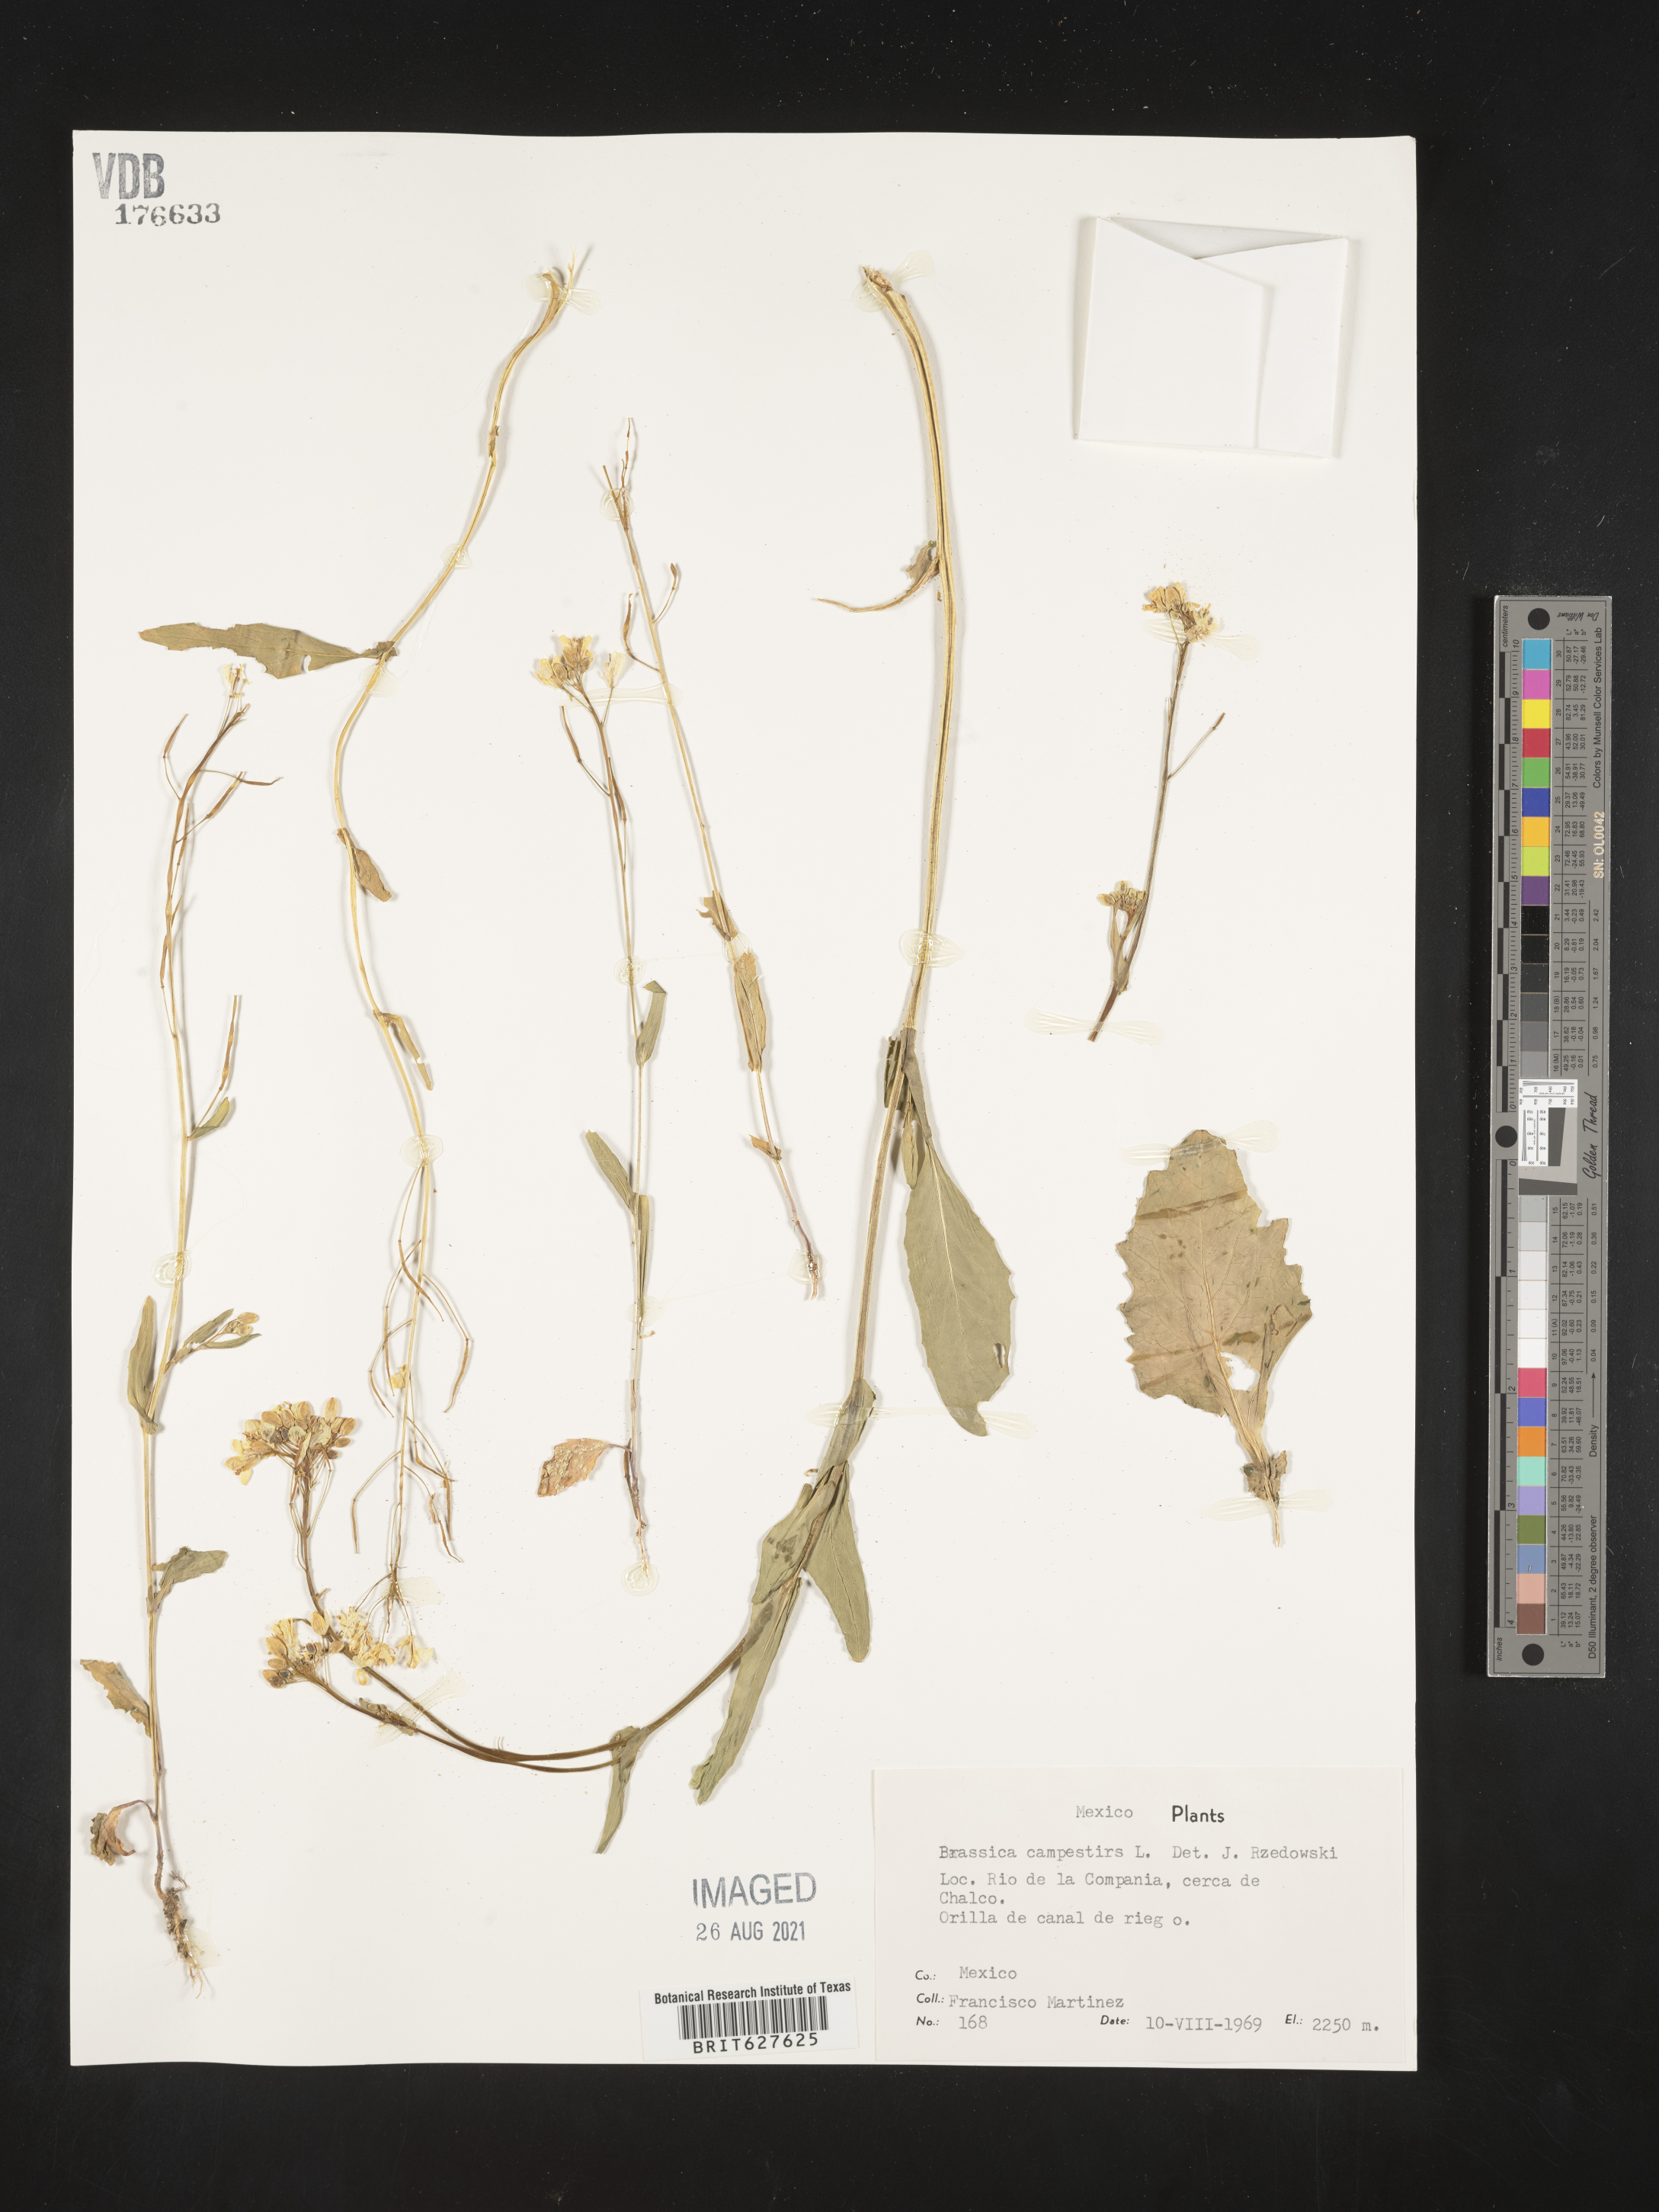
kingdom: Plantae
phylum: Tracheophyta
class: Magnoliopsida
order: Brassicales
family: Brassicaceae
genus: Brassica
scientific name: Brassica
